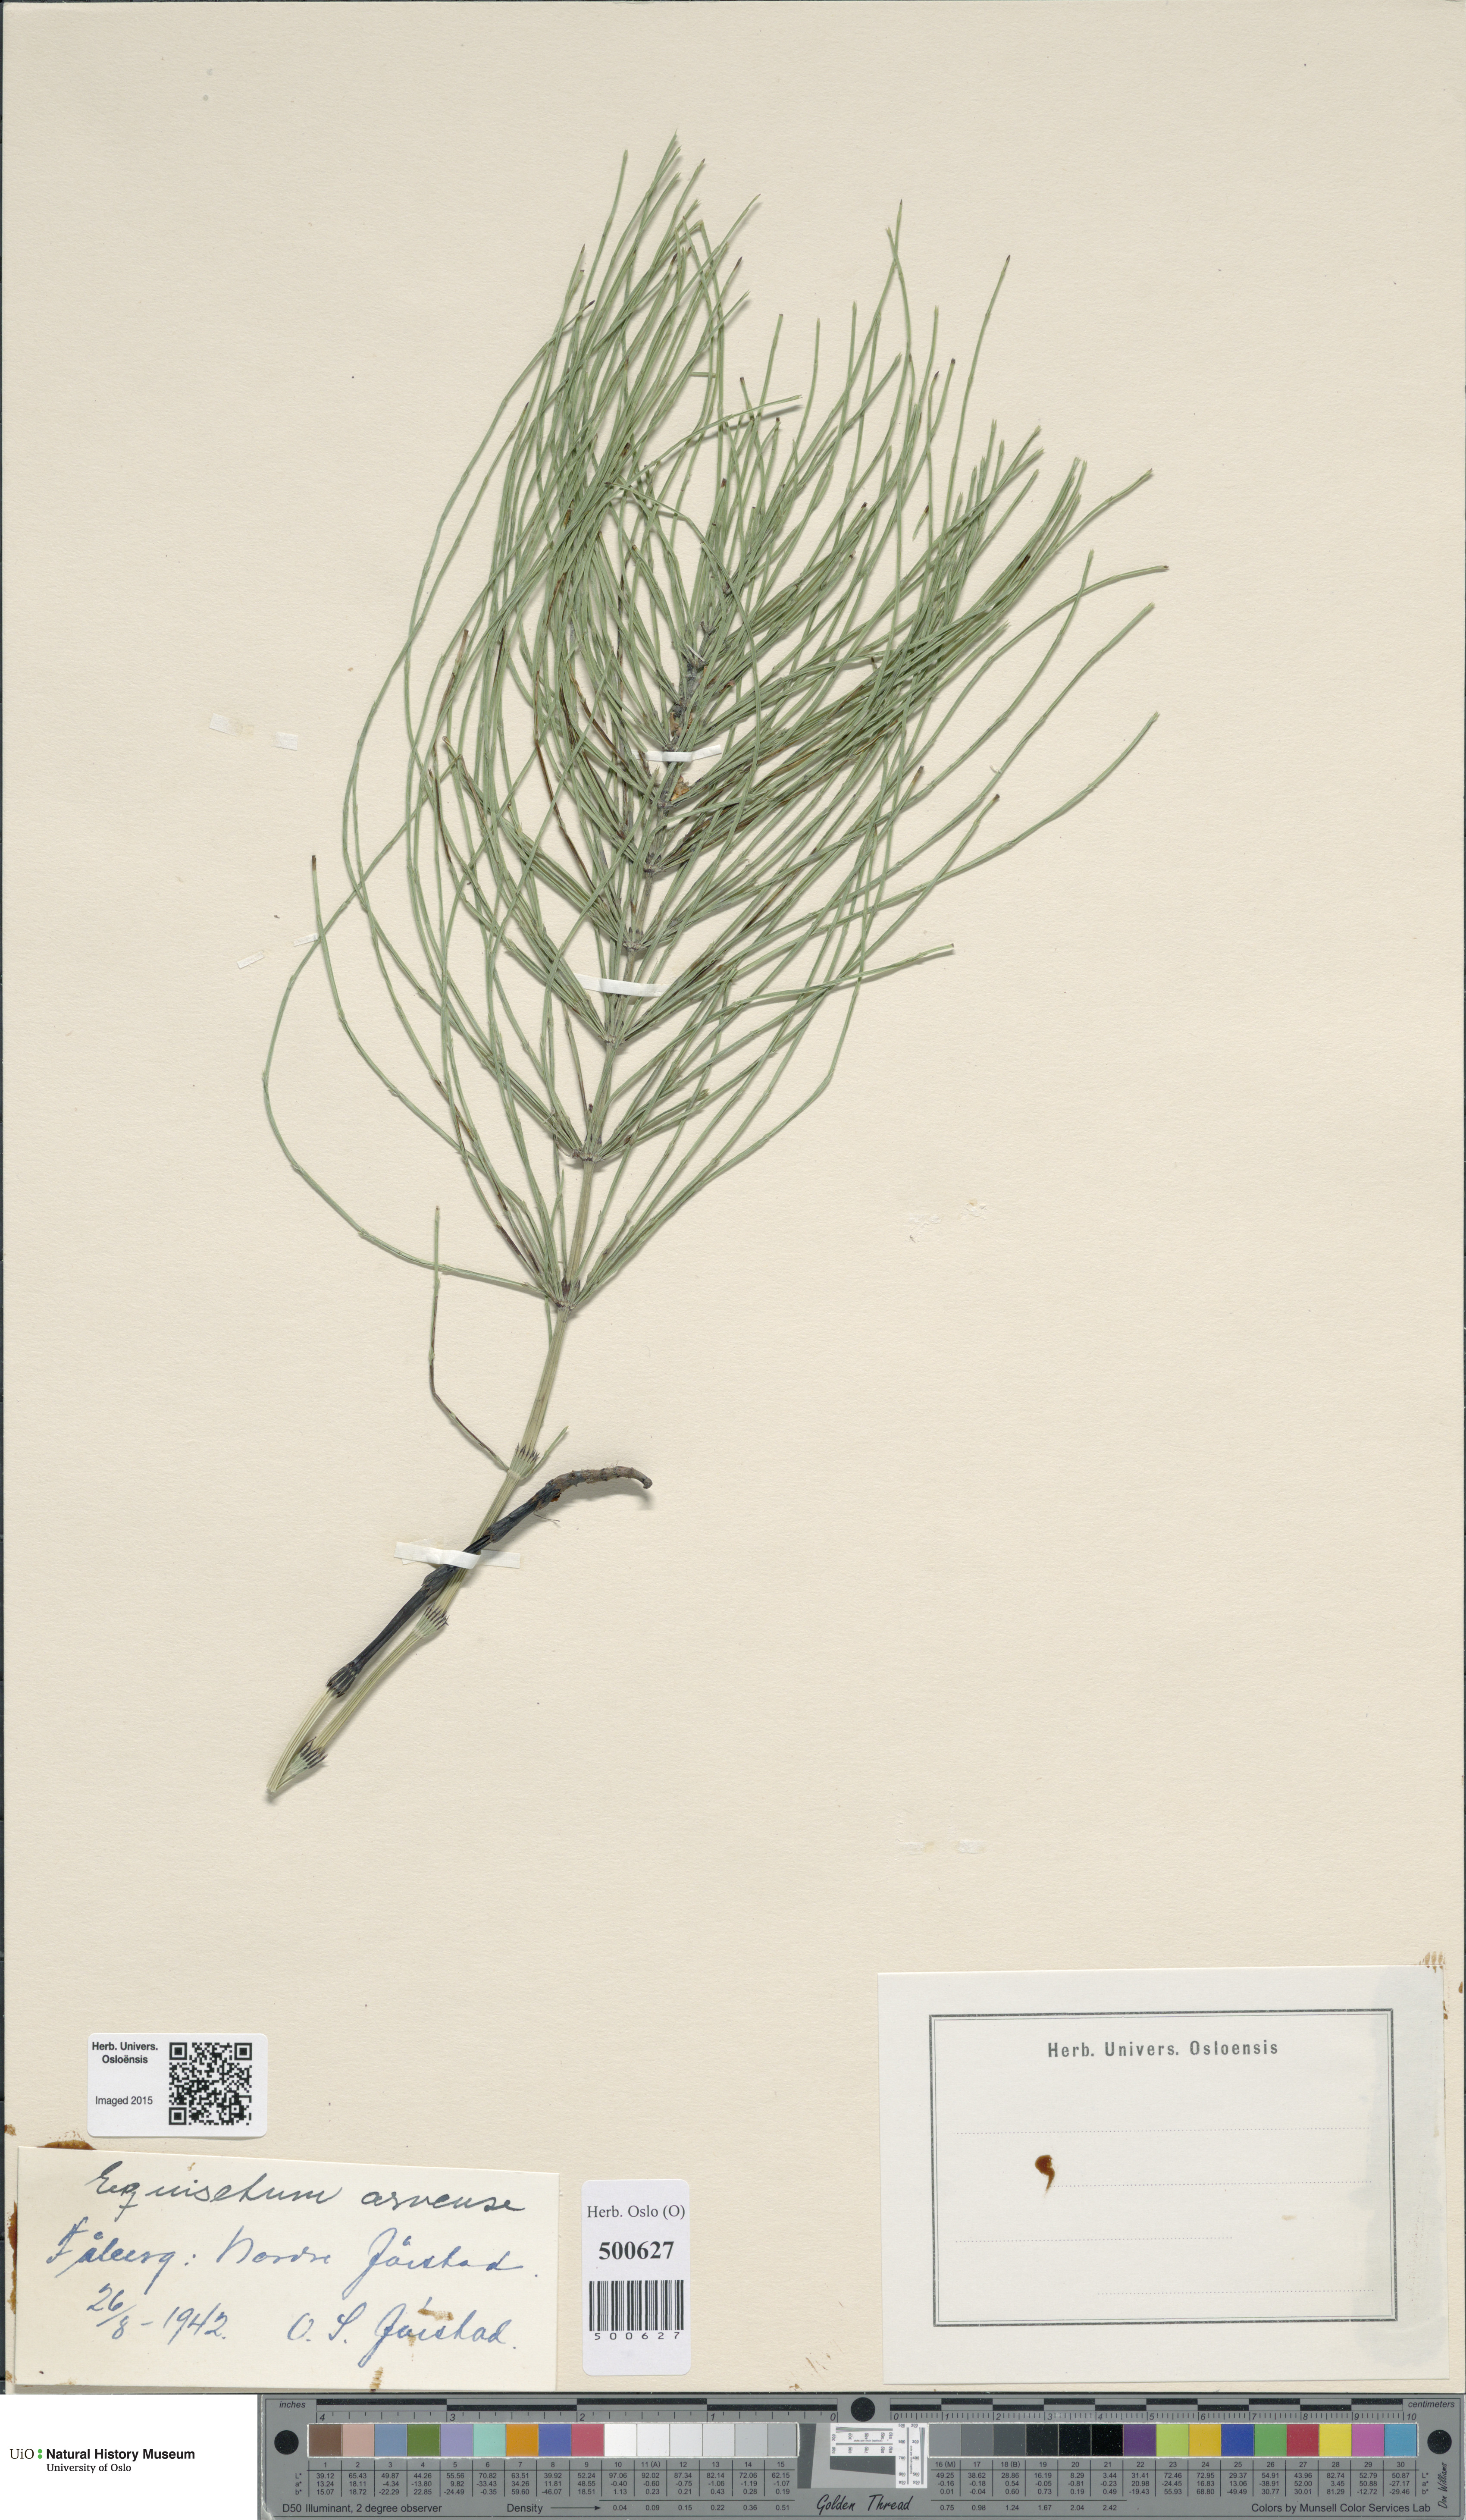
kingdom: Plantae
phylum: Tracheophyta
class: Polypodiopsida
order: Equisetales
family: Equisetaceae
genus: Equisetum
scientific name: Equisetum arvense
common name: Field horsetail
